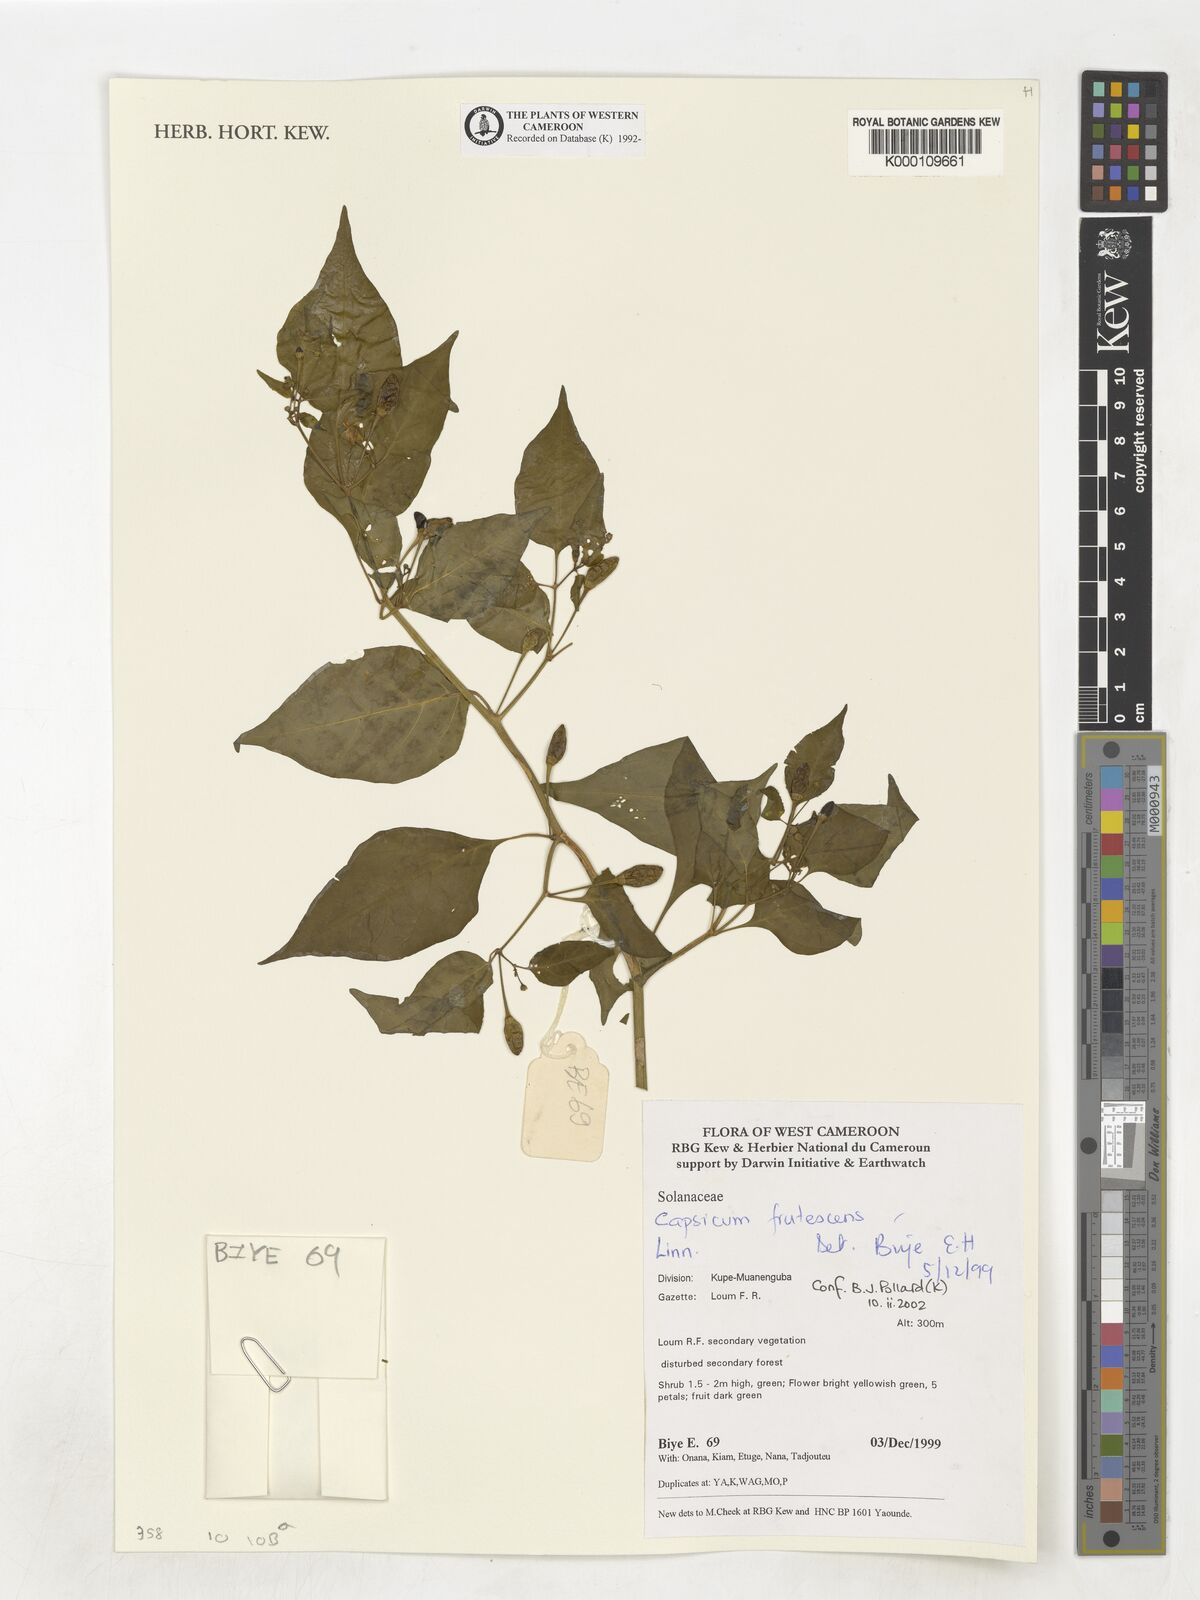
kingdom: Plantae
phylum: Tracheophyta
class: Magnoliopsida
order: Solanales
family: Solanaceae
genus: Capsicum
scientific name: Capsicum frutescens
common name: Bird pepper
